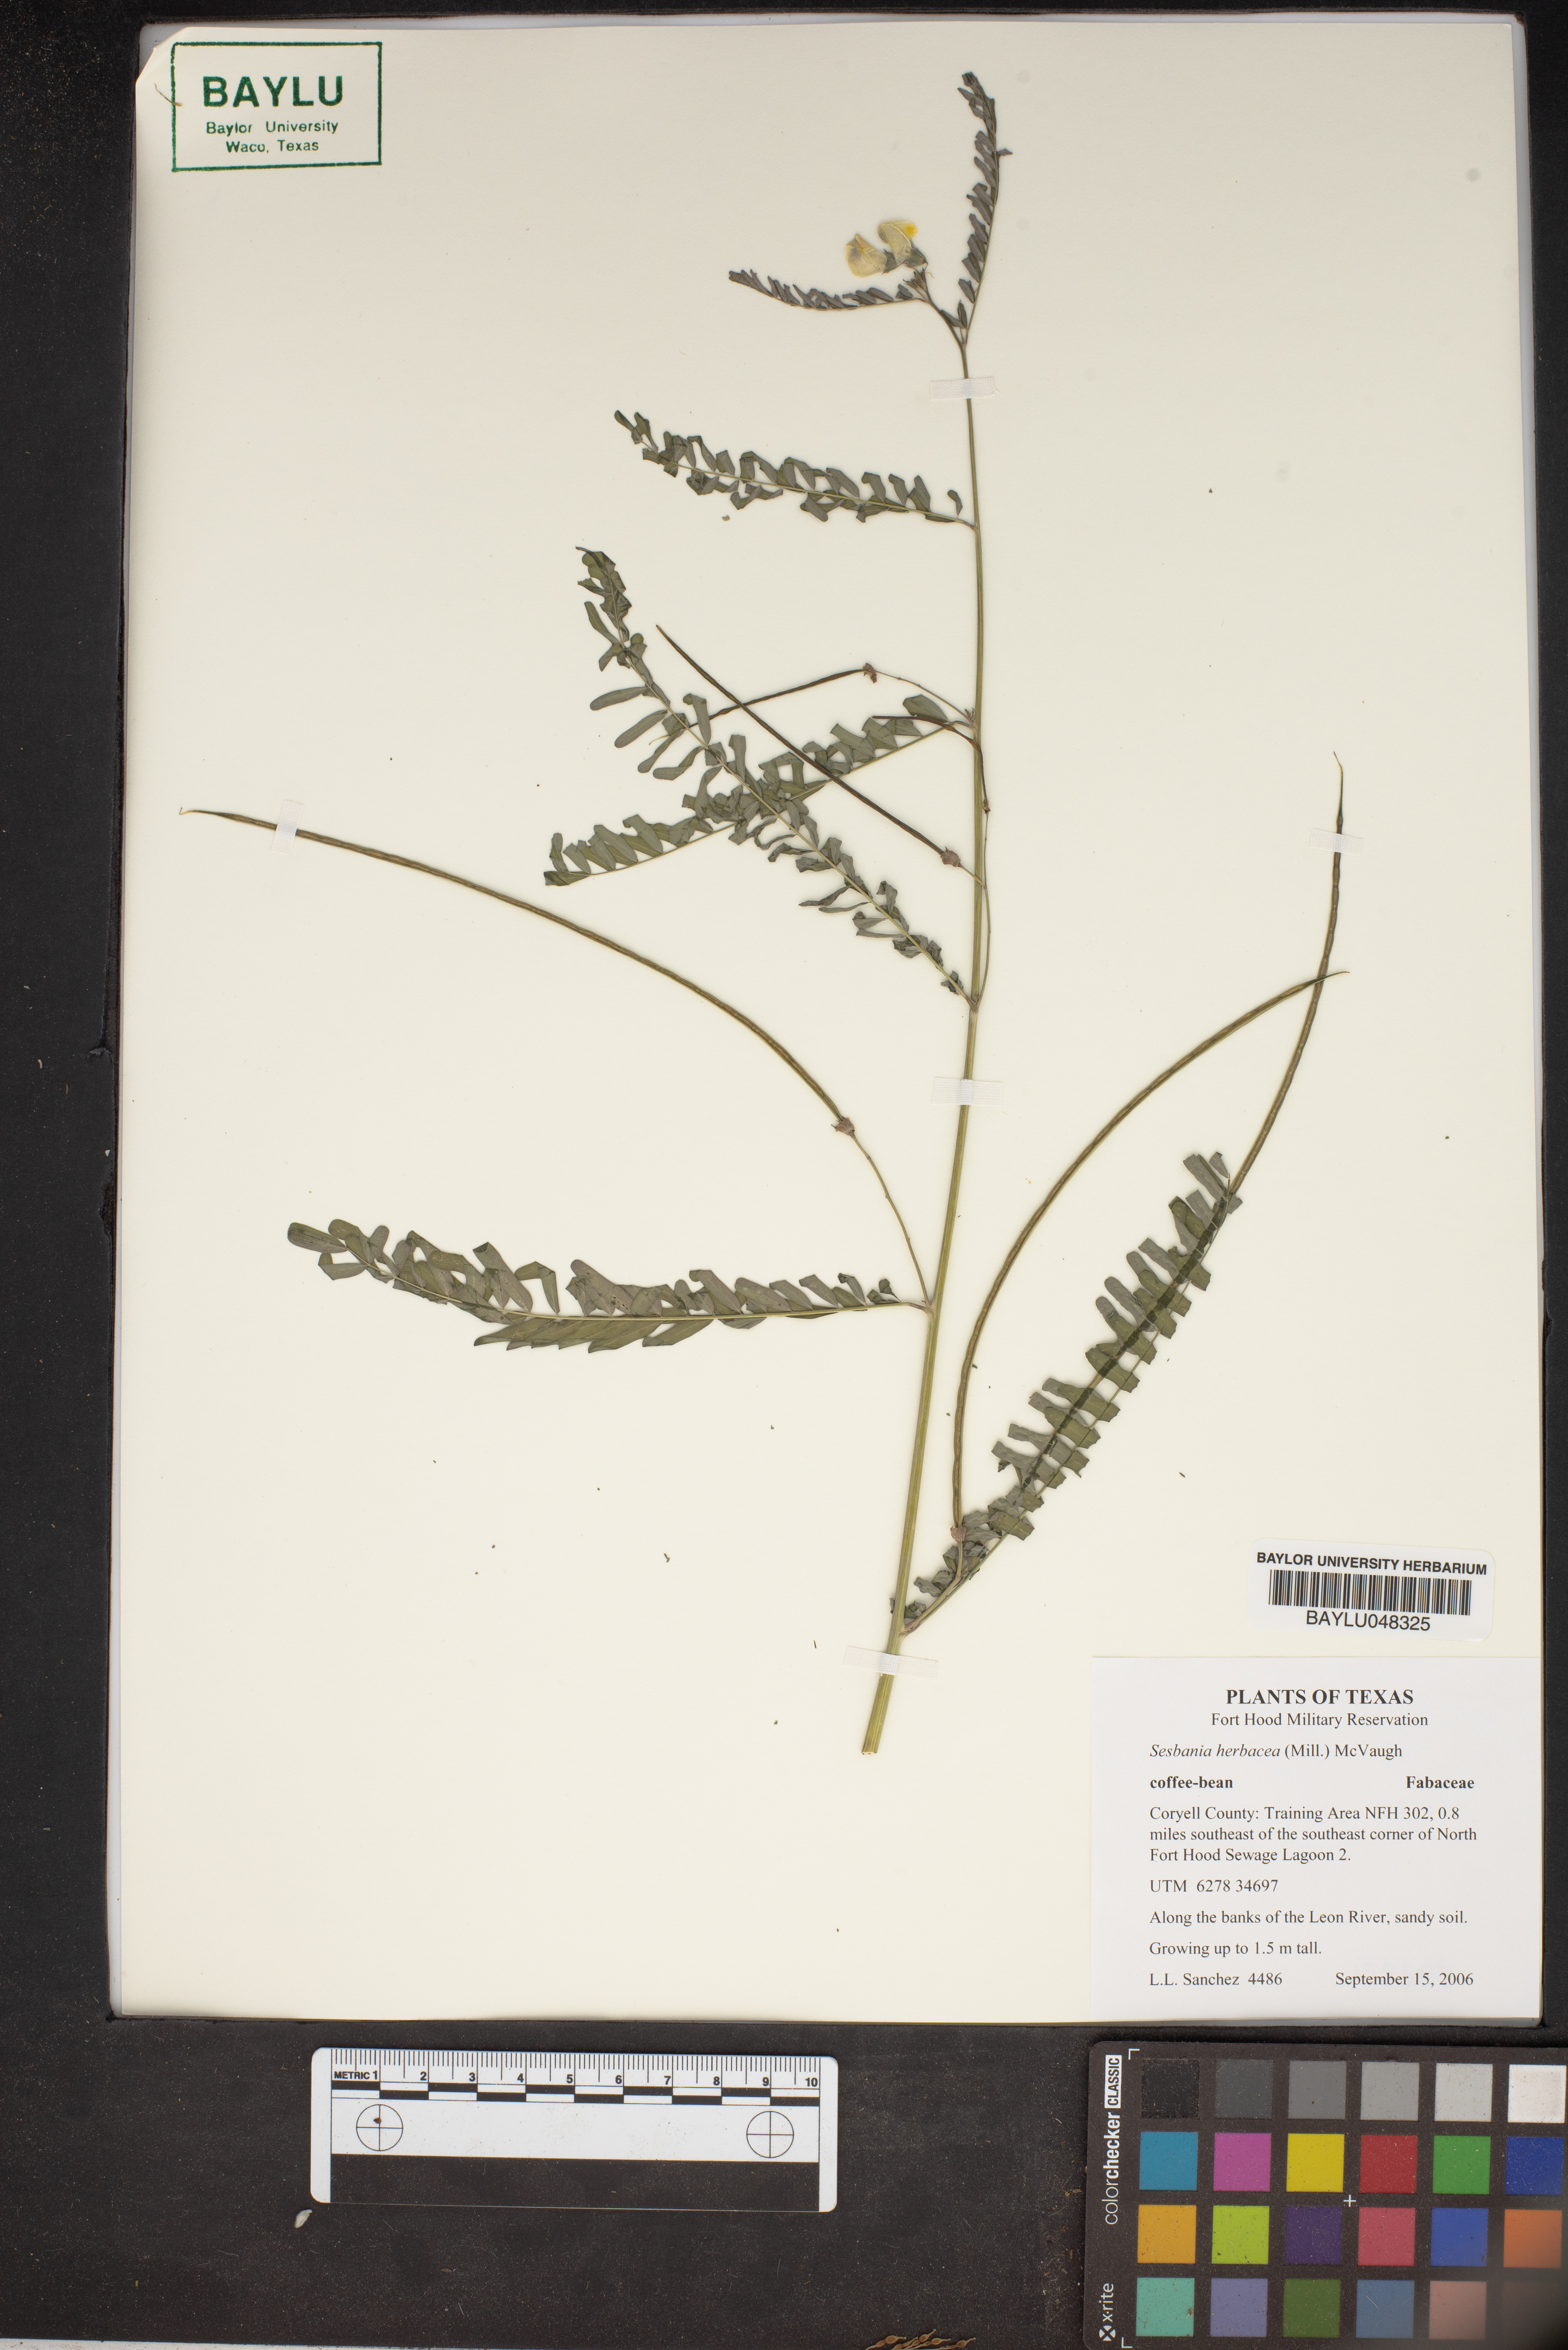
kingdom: Plantae
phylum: Tracheophyta
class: Magnoliopsida
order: Fabales
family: Fabaceae
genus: Sesbania
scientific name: Sesbania herbacea
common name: Bigpod sesbania
